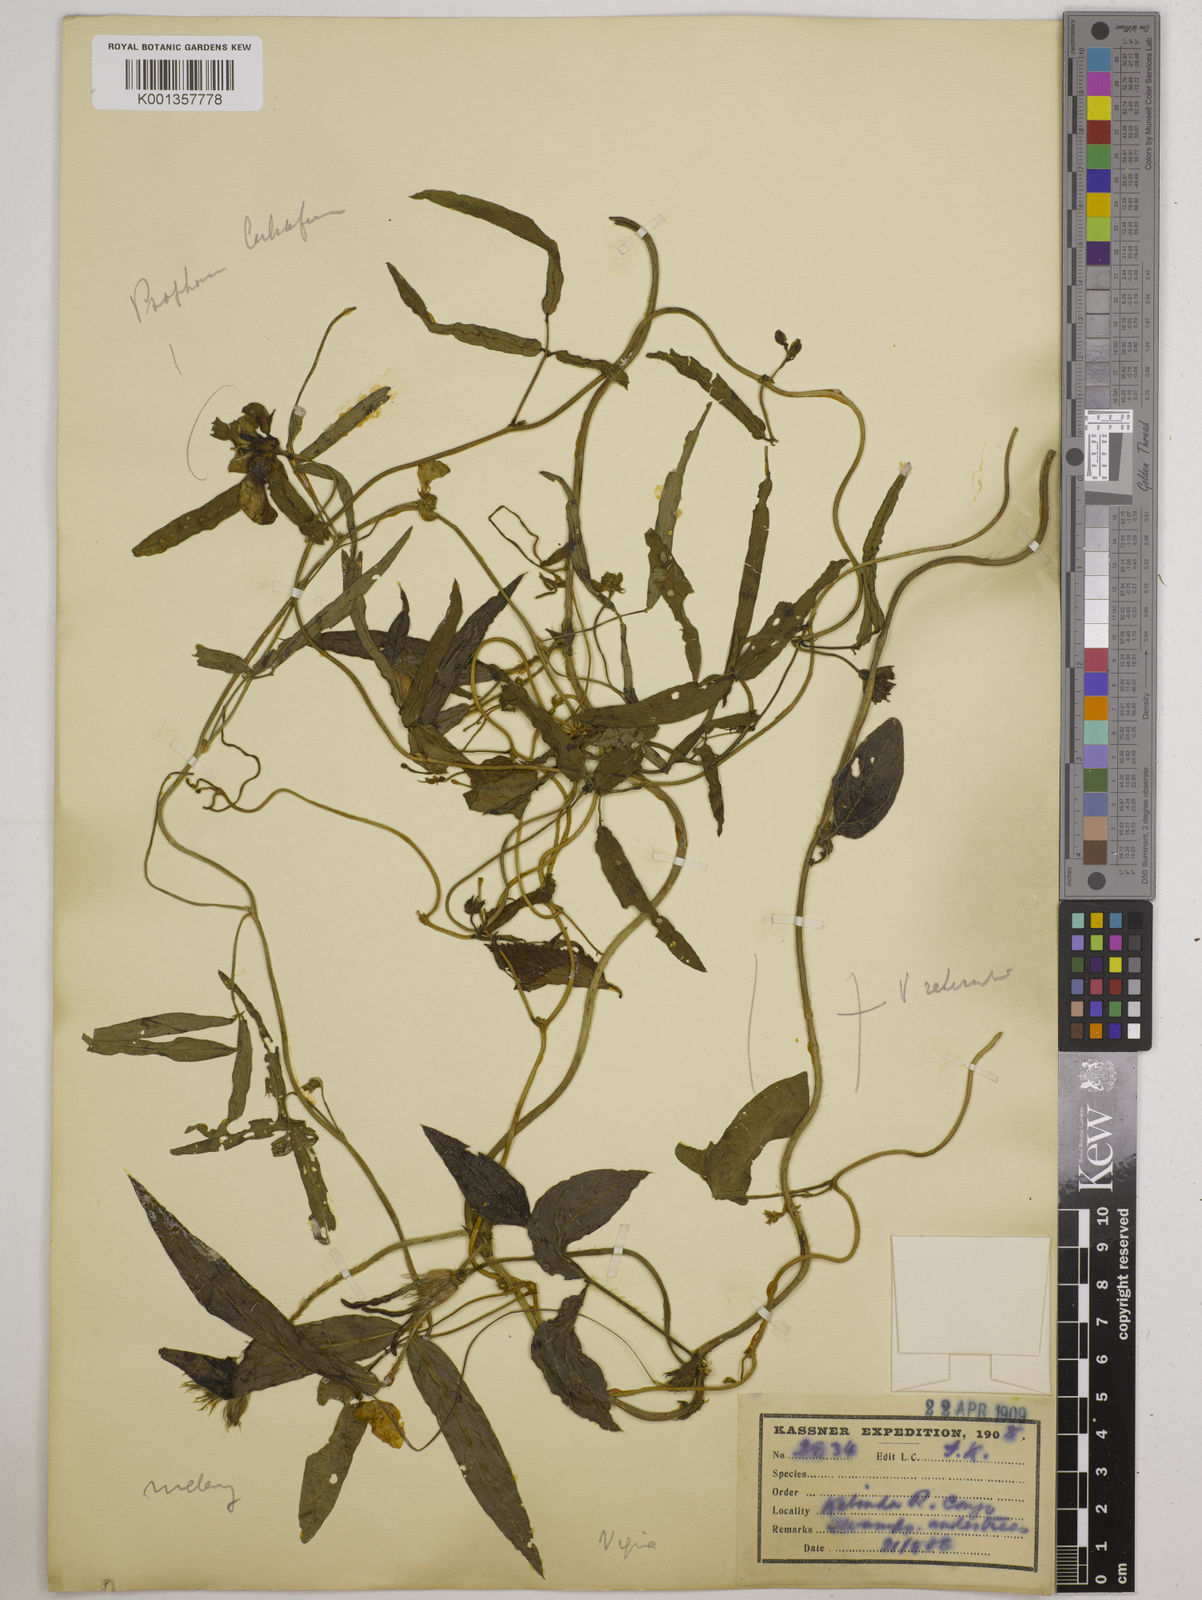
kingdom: Plantae
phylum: Tracheophyta
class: Magnoliopsida
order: Fabales
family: Fabaceae
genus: Vigna
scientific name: Vigna
